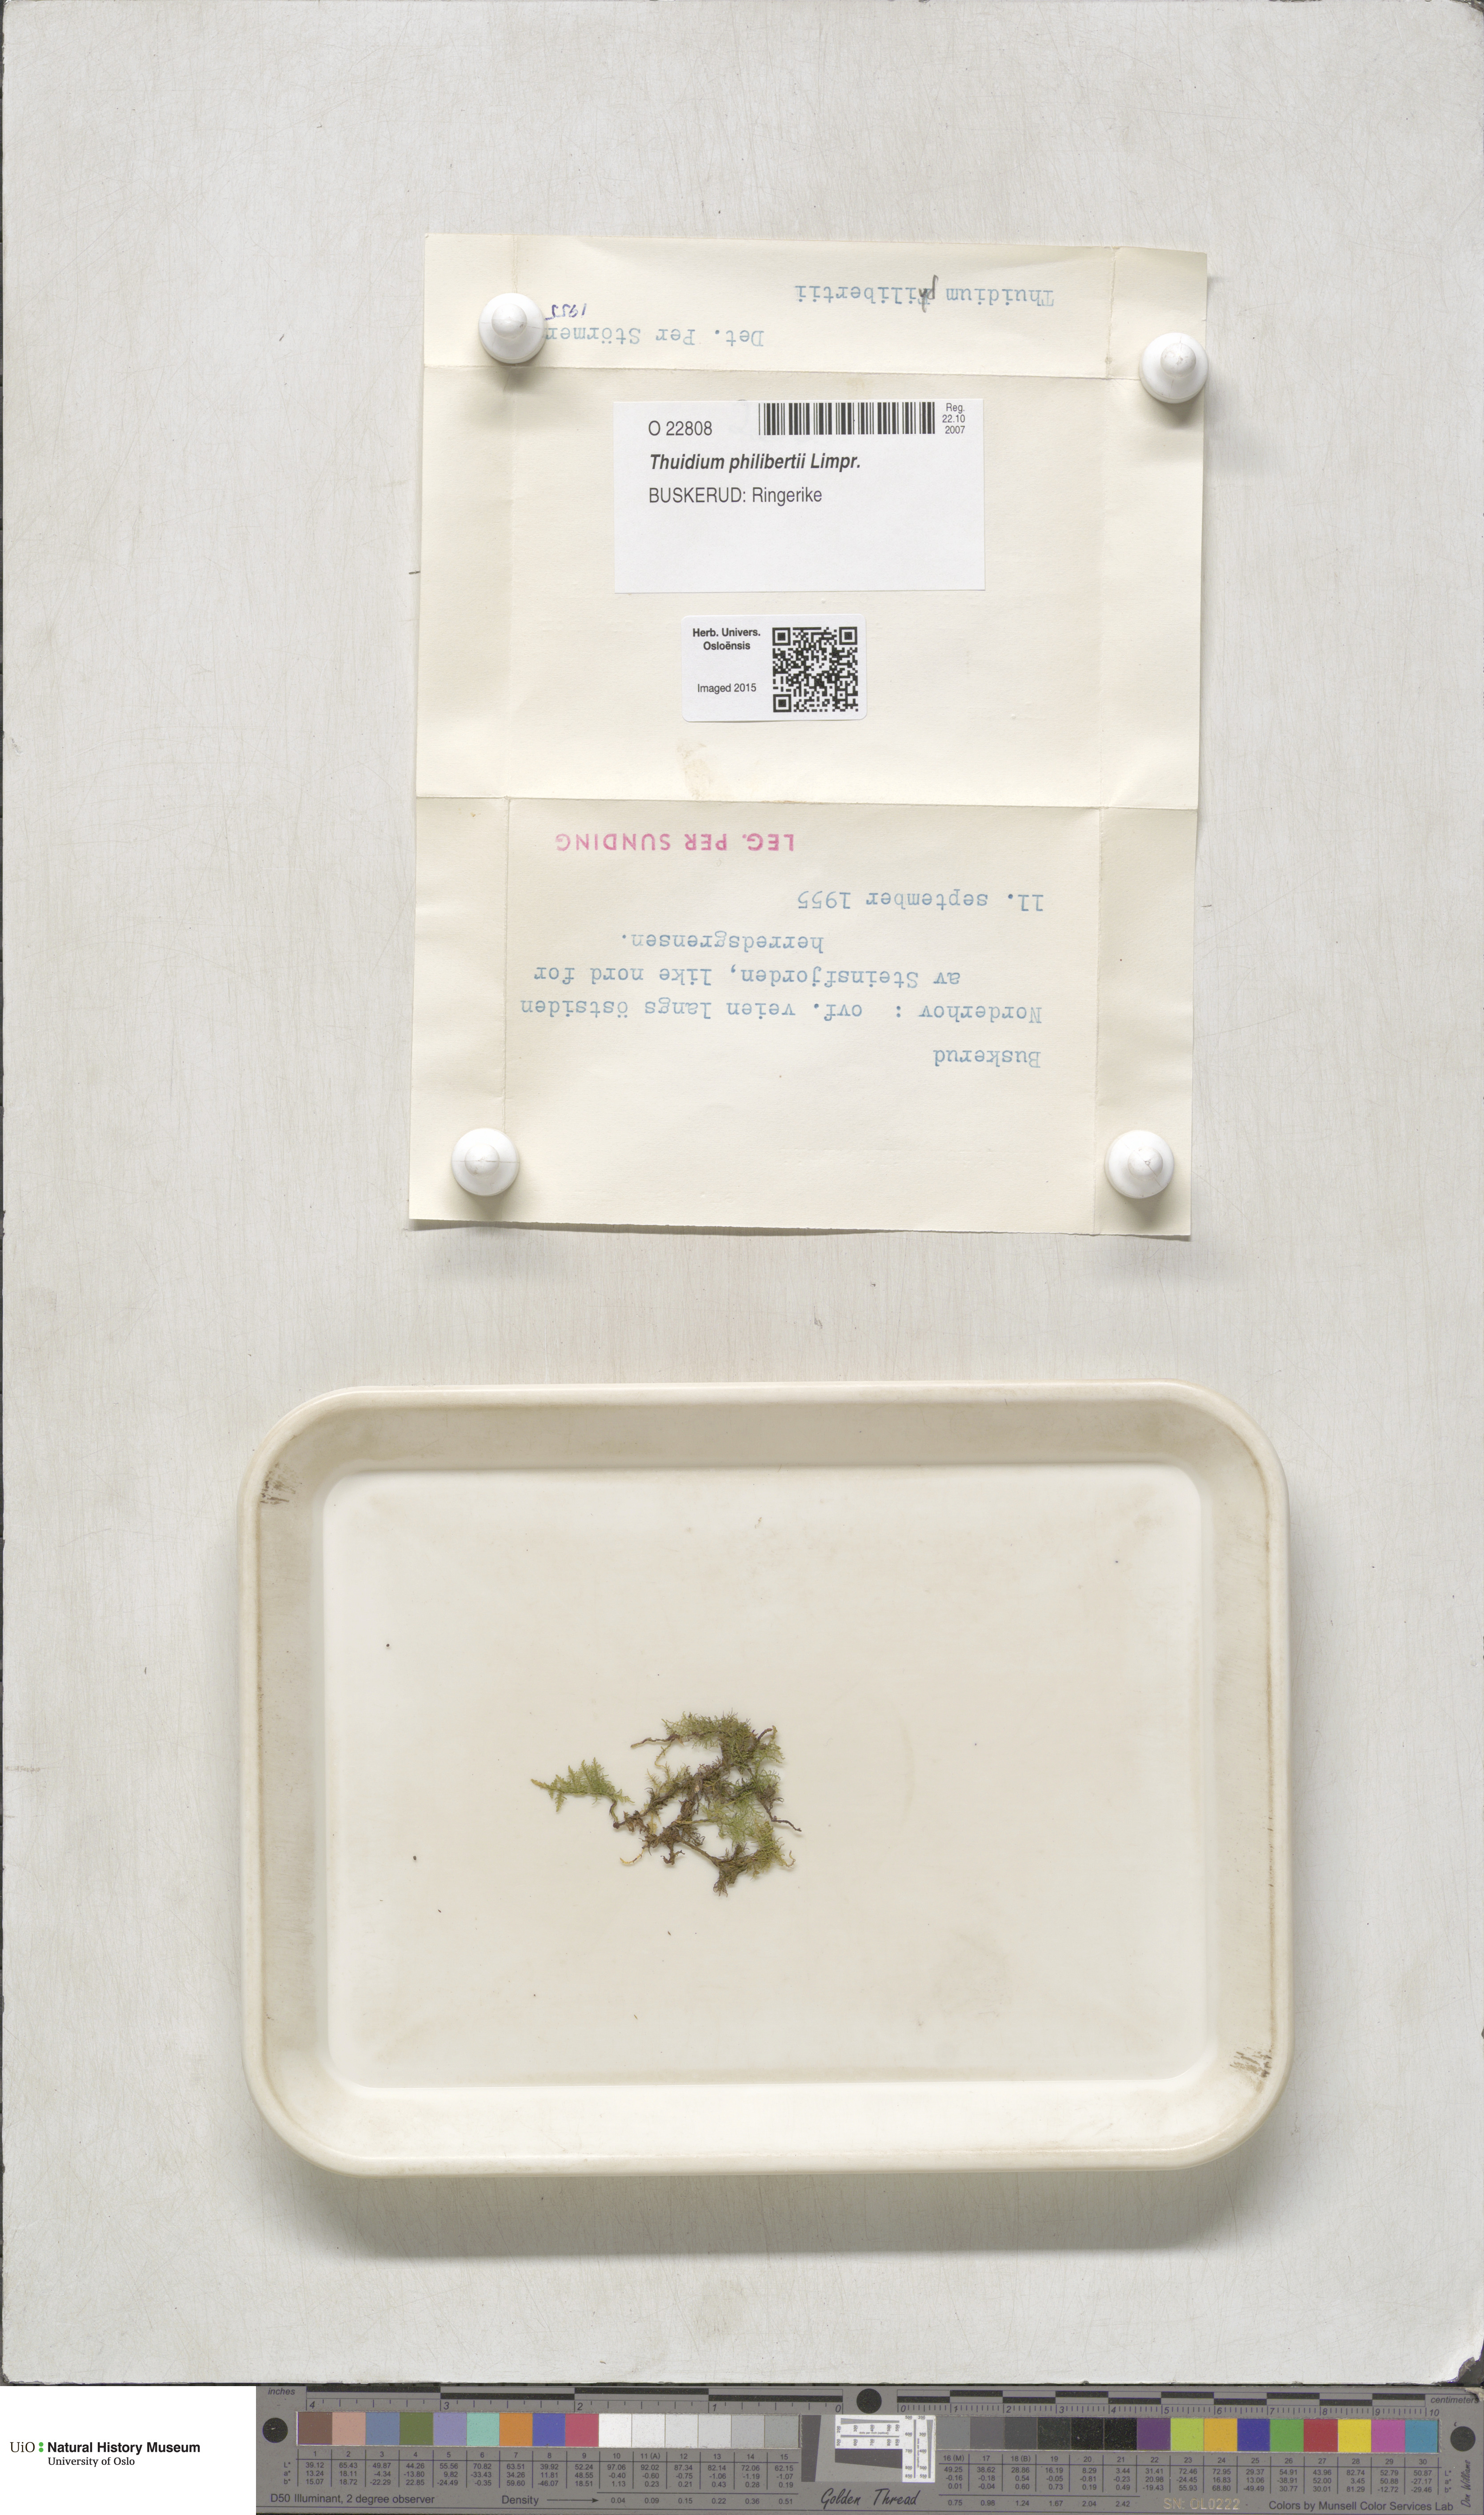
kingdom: Plantae
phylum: Bryophyta
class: Bryopsida
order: Hypnales
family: Thuidiaceae
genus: Thuidium
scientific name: Thuidium assimile
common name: Philibert's fern moss
